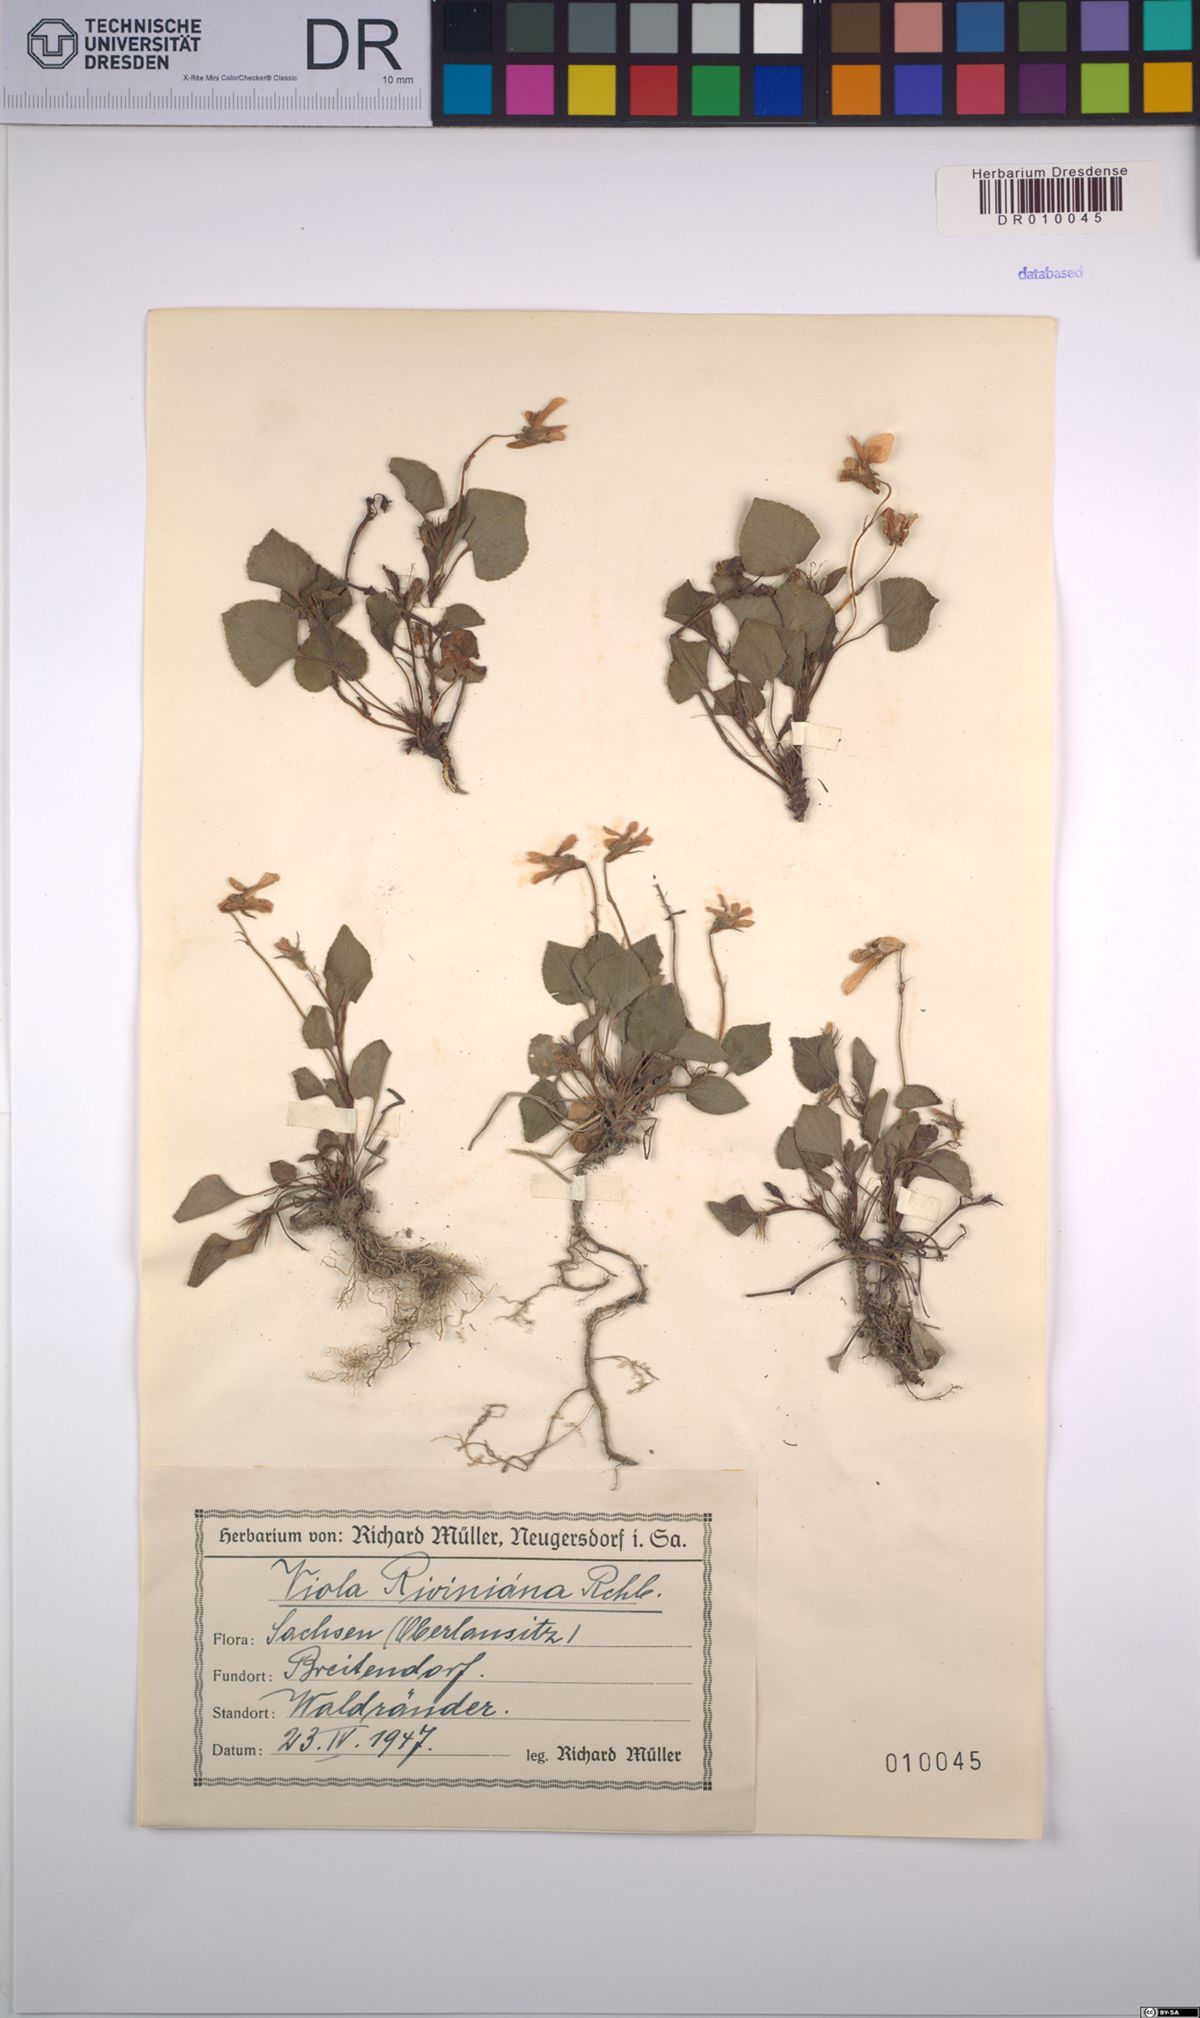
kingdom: Plantae
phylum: Tracheophyta
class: Magnoliopsida
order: Malpighiales
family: Violaceae
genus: Viola
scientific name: Viola riviniana
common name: Common dog-violet
